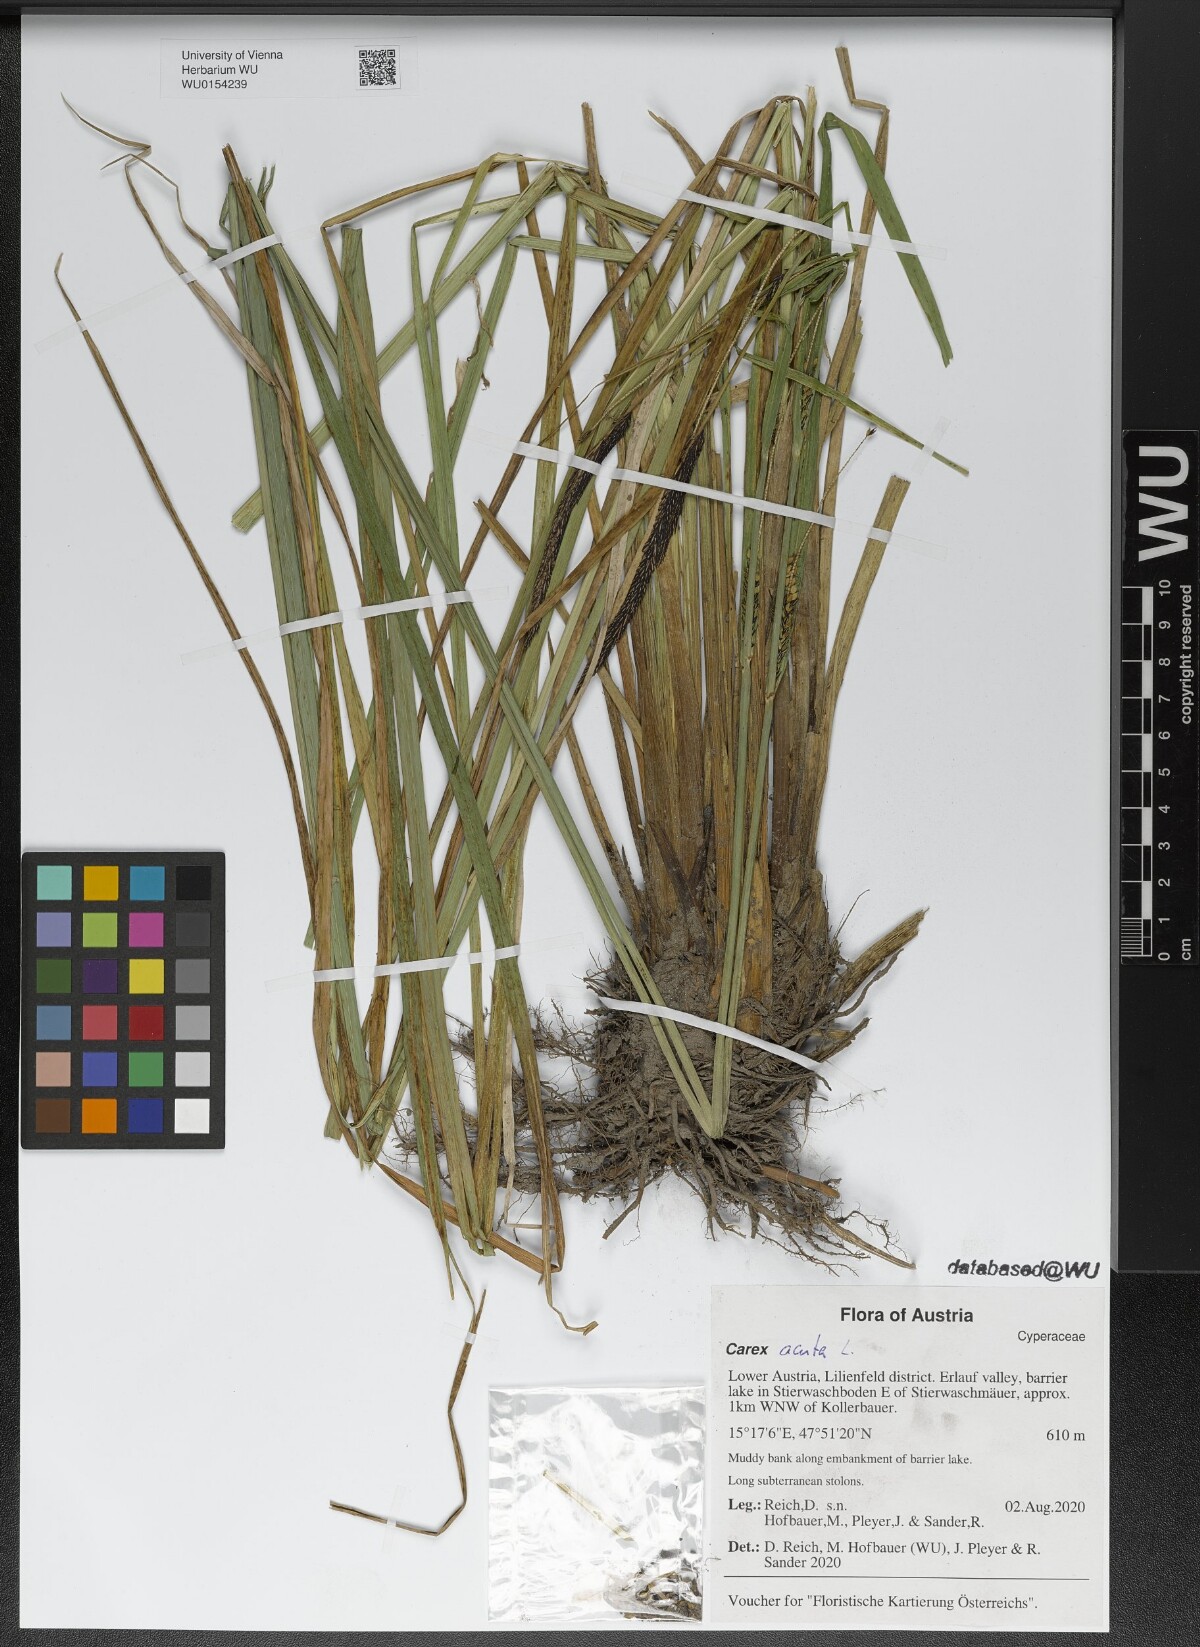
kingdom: Plantae
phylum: Tracheophyta
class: Liliopsida
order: Poales
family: Cyperaceae
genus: Carex
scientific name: Carex acuta
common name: Slender tufted-sedge
